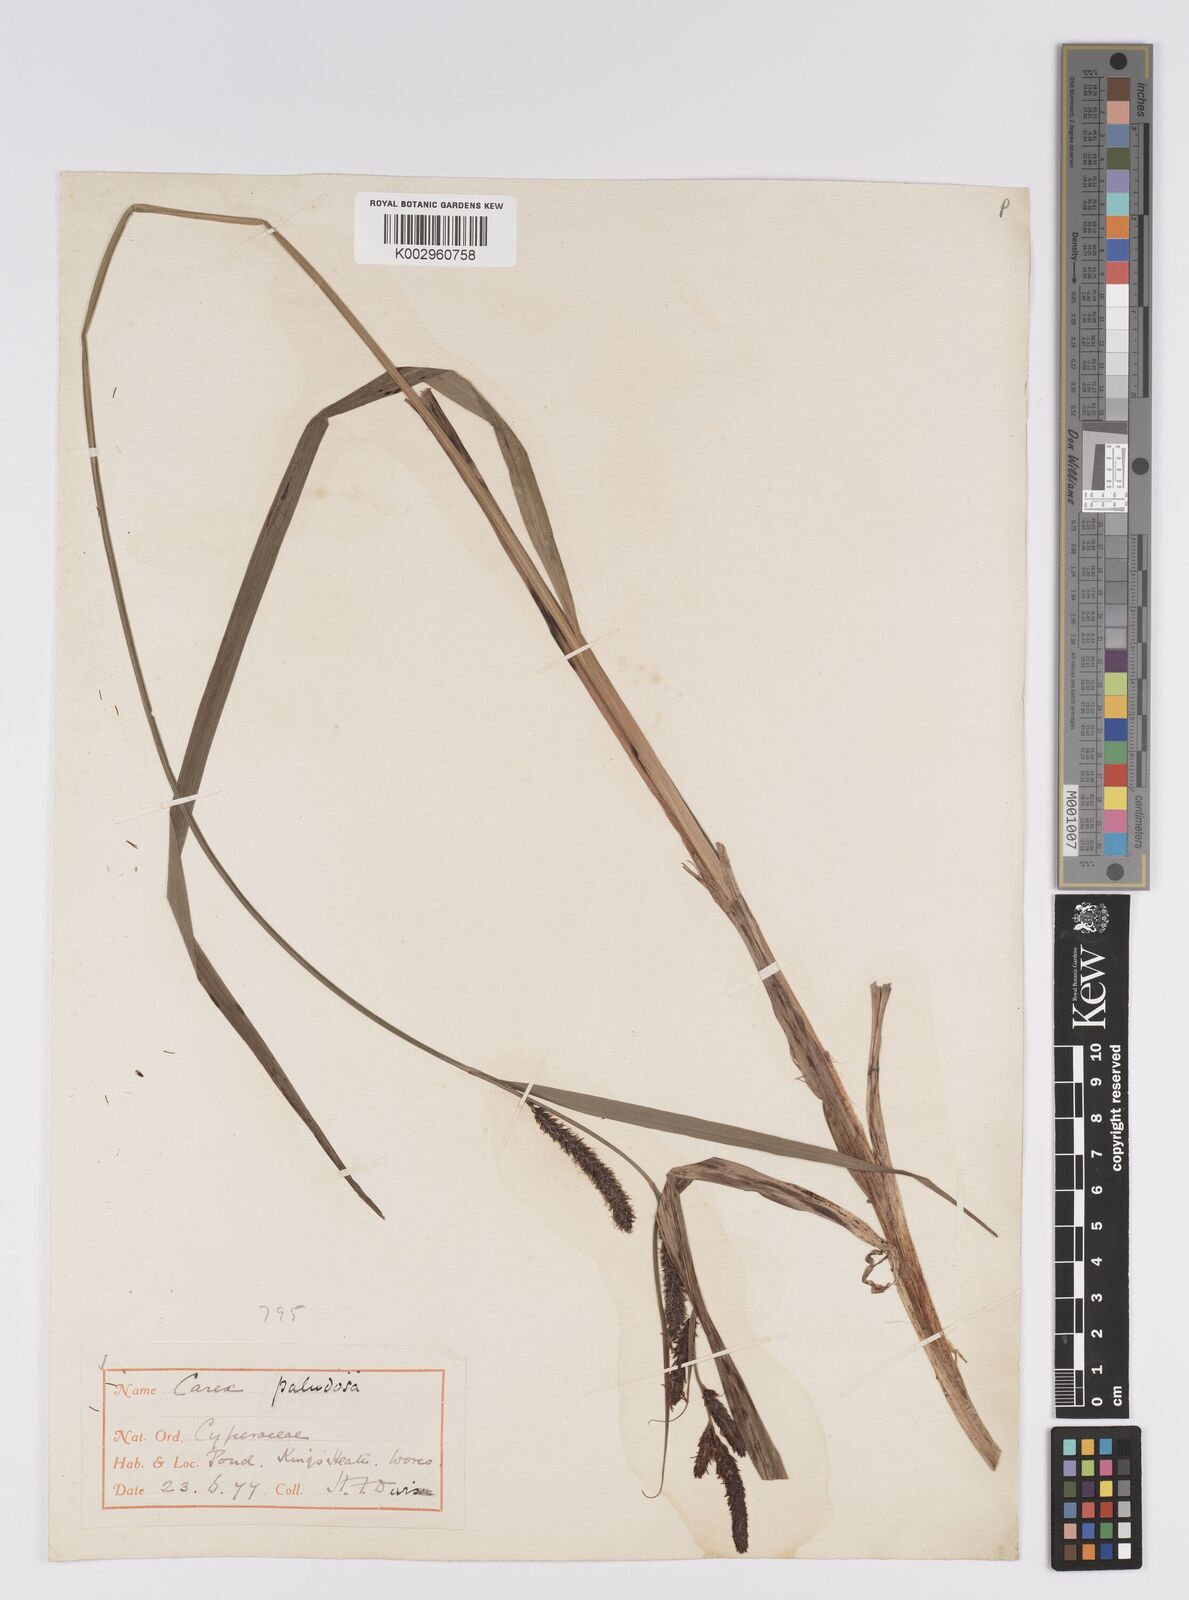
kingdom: Plantae
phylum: Tracheophyta
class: Liliopsida
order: Poales
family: Cyperaceae
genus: Carex
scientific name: Carex acutiformis
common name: Lesser pond-sedge
